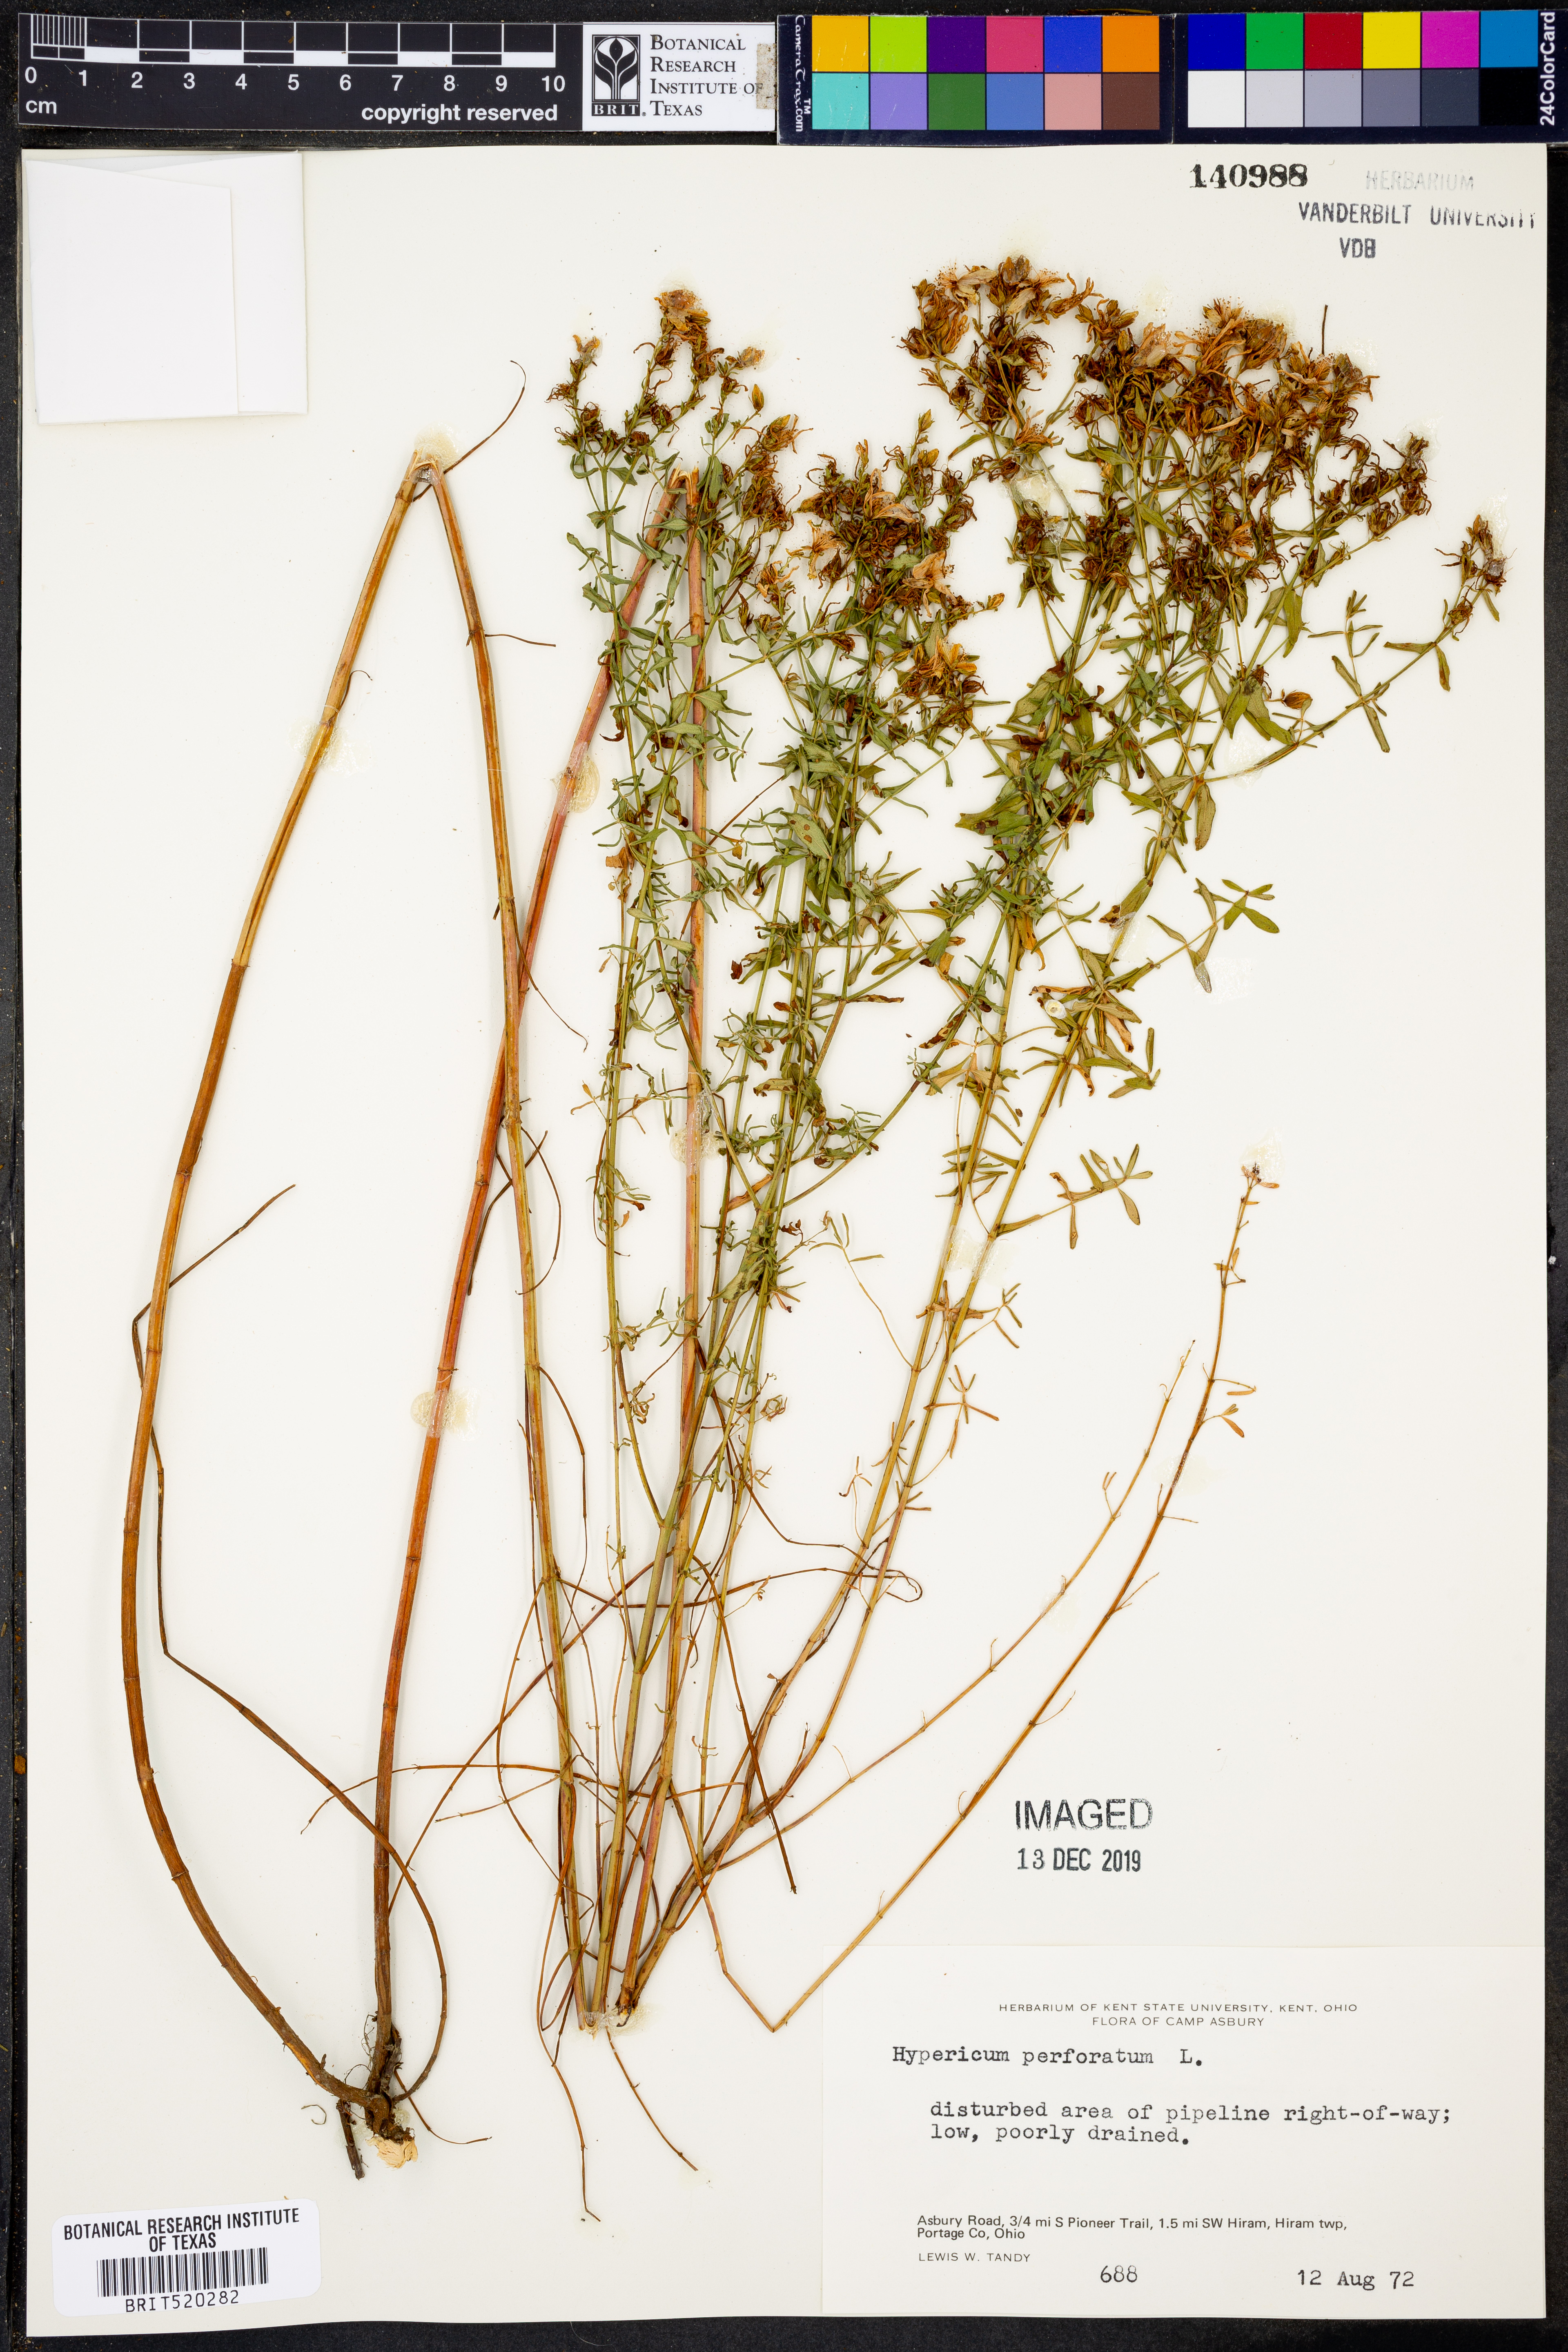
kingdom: Plantae
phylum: Tracheophyta
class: Magnoliopsida
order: Malpighiales
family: Hypericaceae
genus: Hypericum
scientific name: Hypericum perforatum
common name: Common st. johnswort
